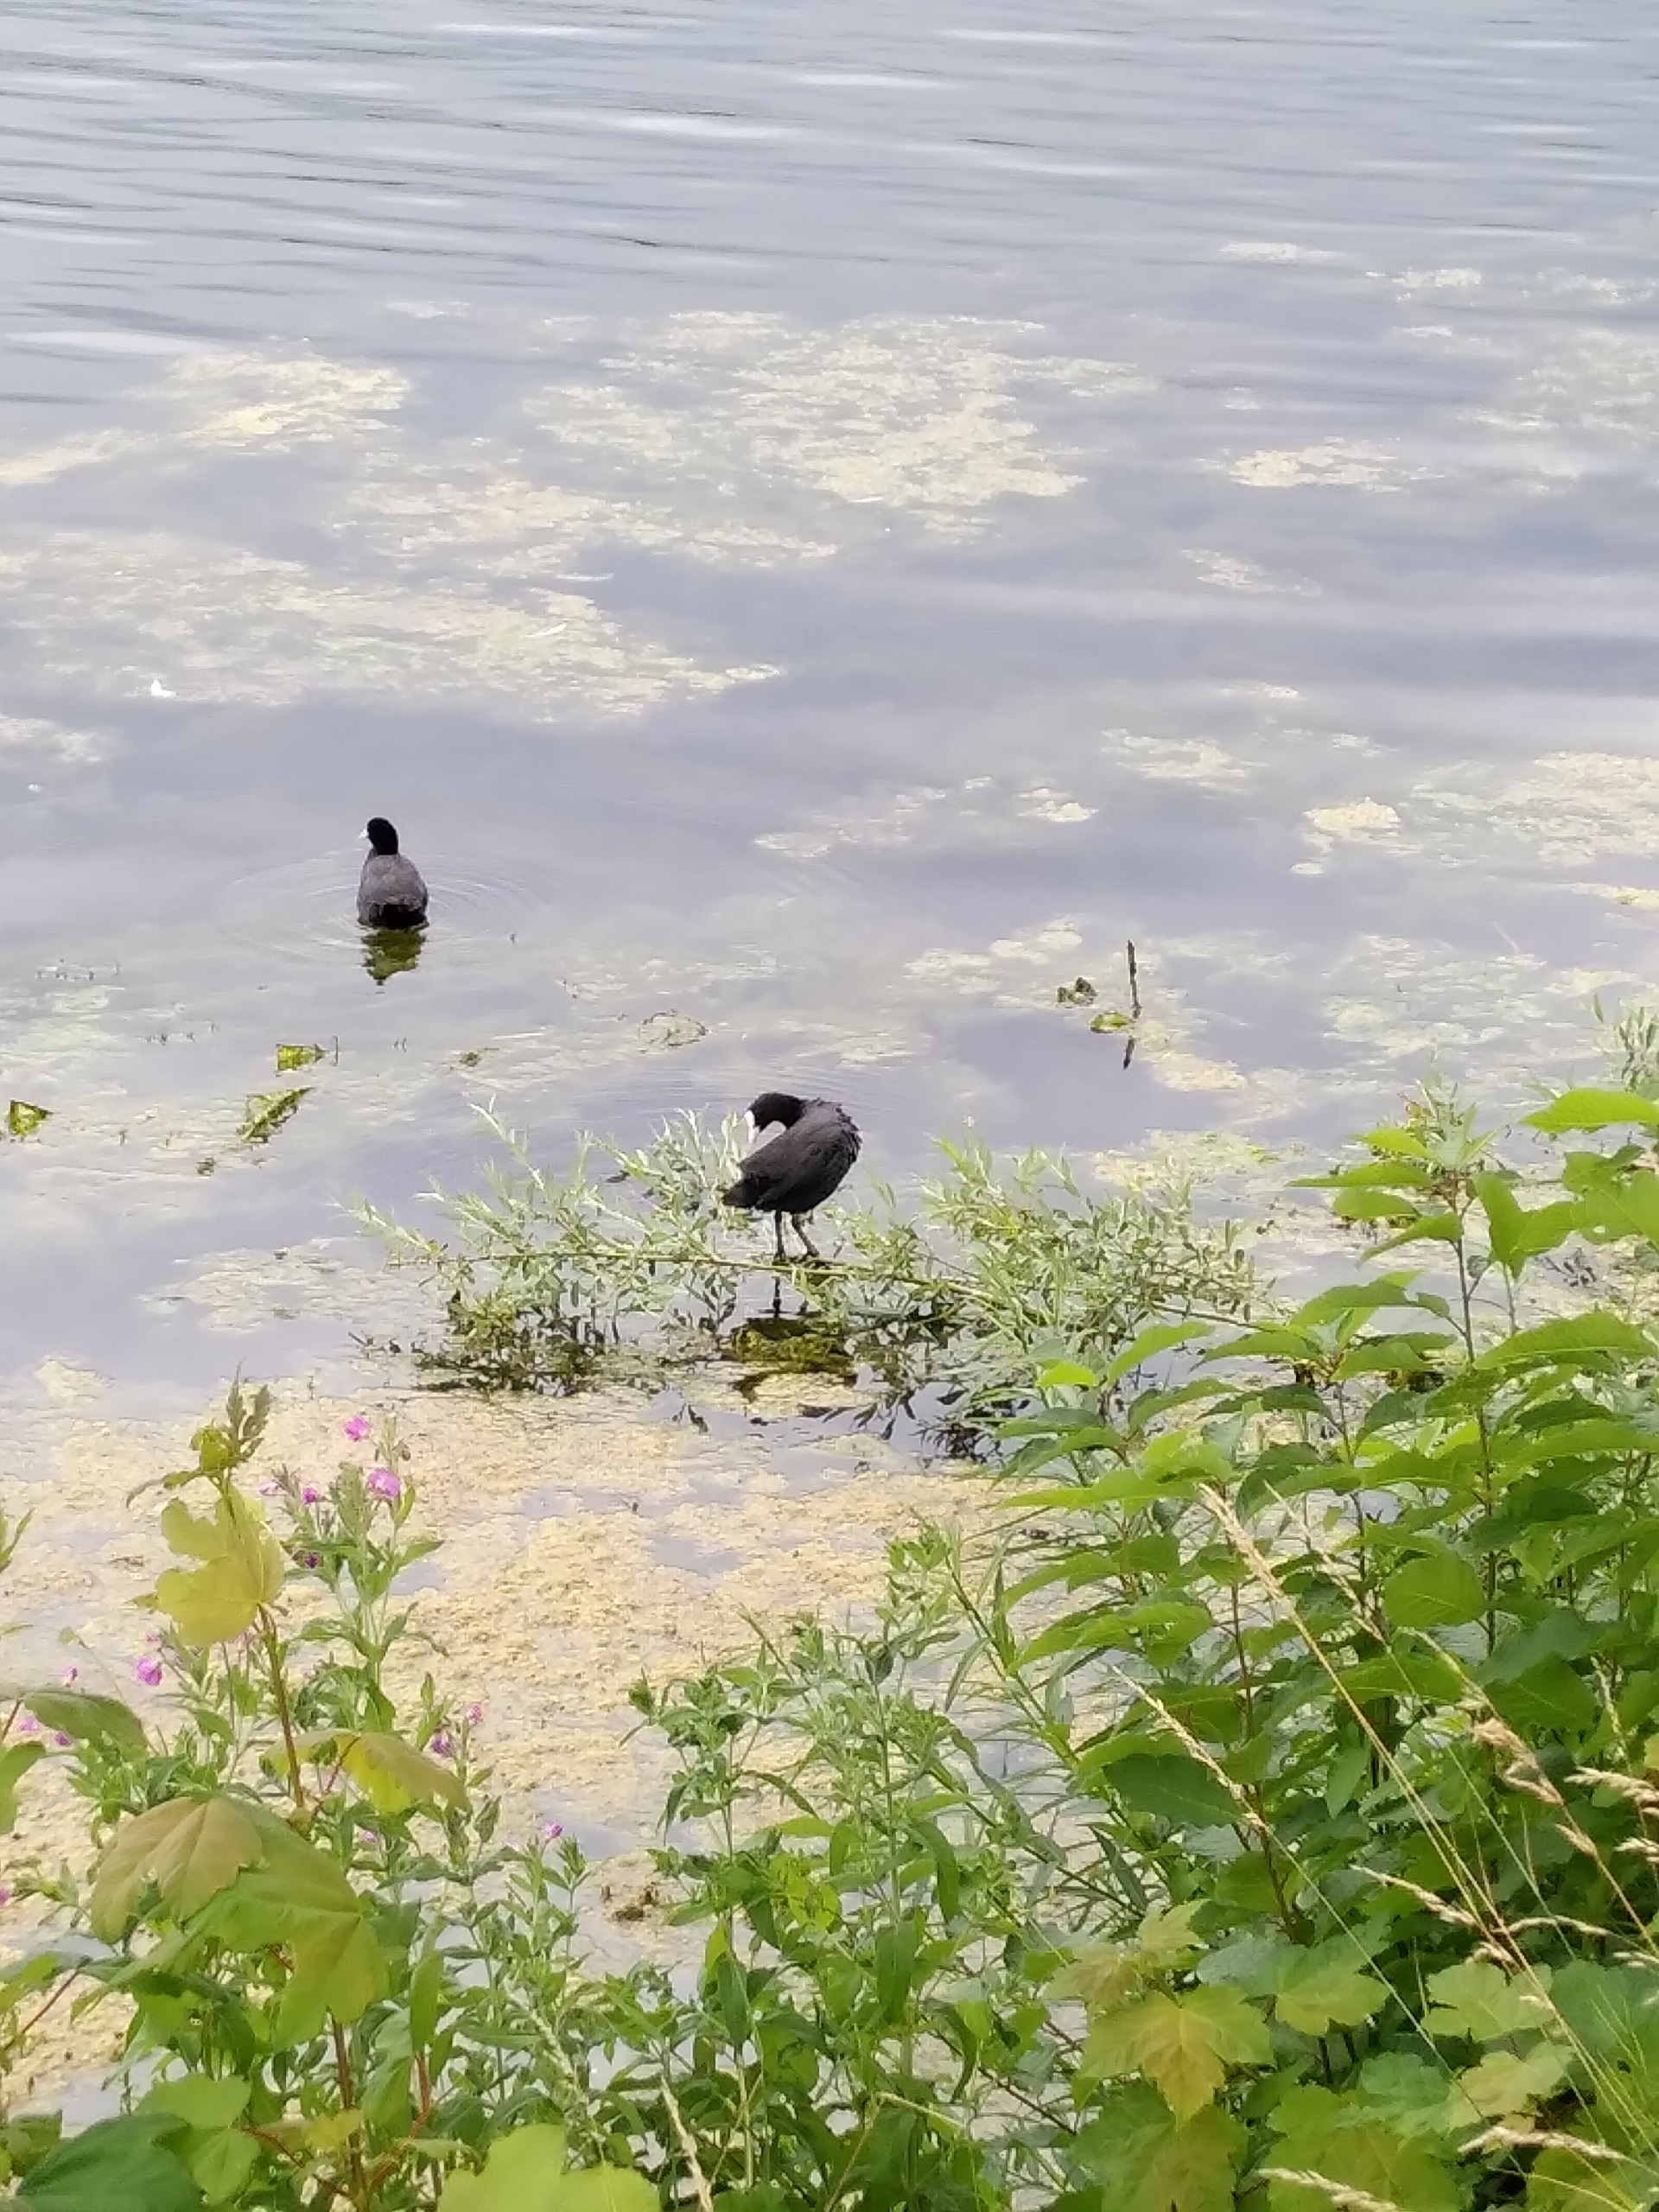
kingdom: Animalia
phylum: Chordata
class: Aves
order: Gruiformes
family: Rallidae
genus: Fulica
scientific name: Fulica atra
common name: Blishøne
